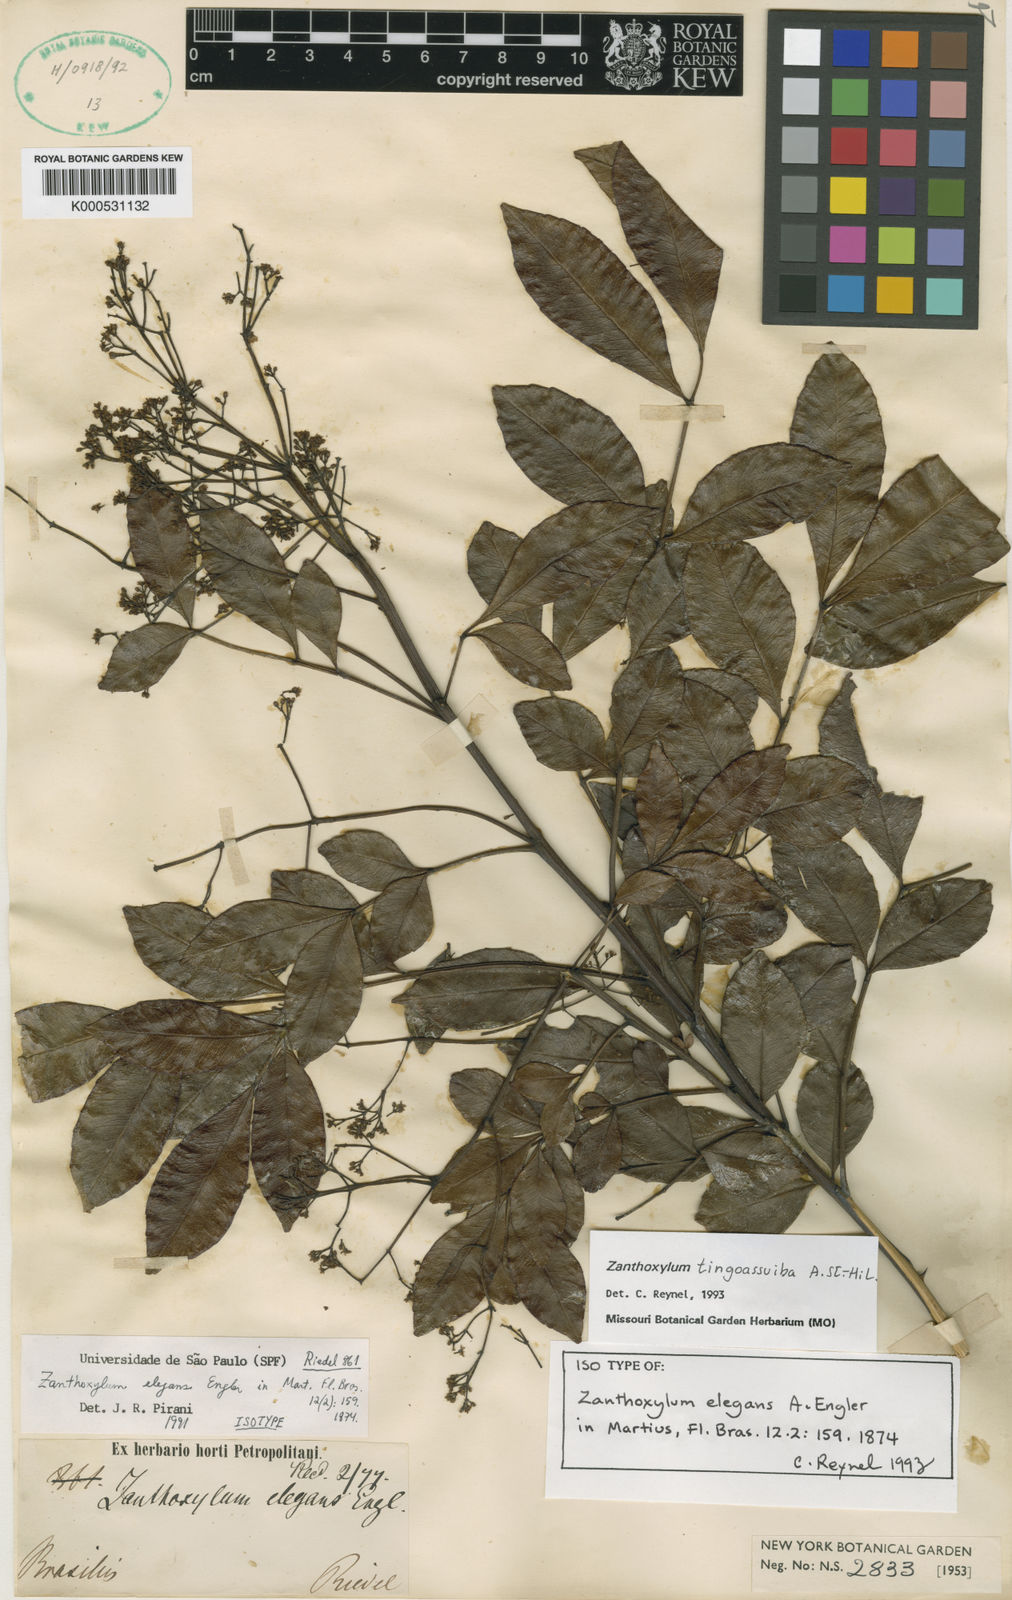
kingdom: Plantae
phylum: Tracheophyta
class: Magnoliopsida
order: Sapindales
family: Rutaceae
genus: Zanthoxylum
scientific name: Zanthoxylum tingoassuiba
